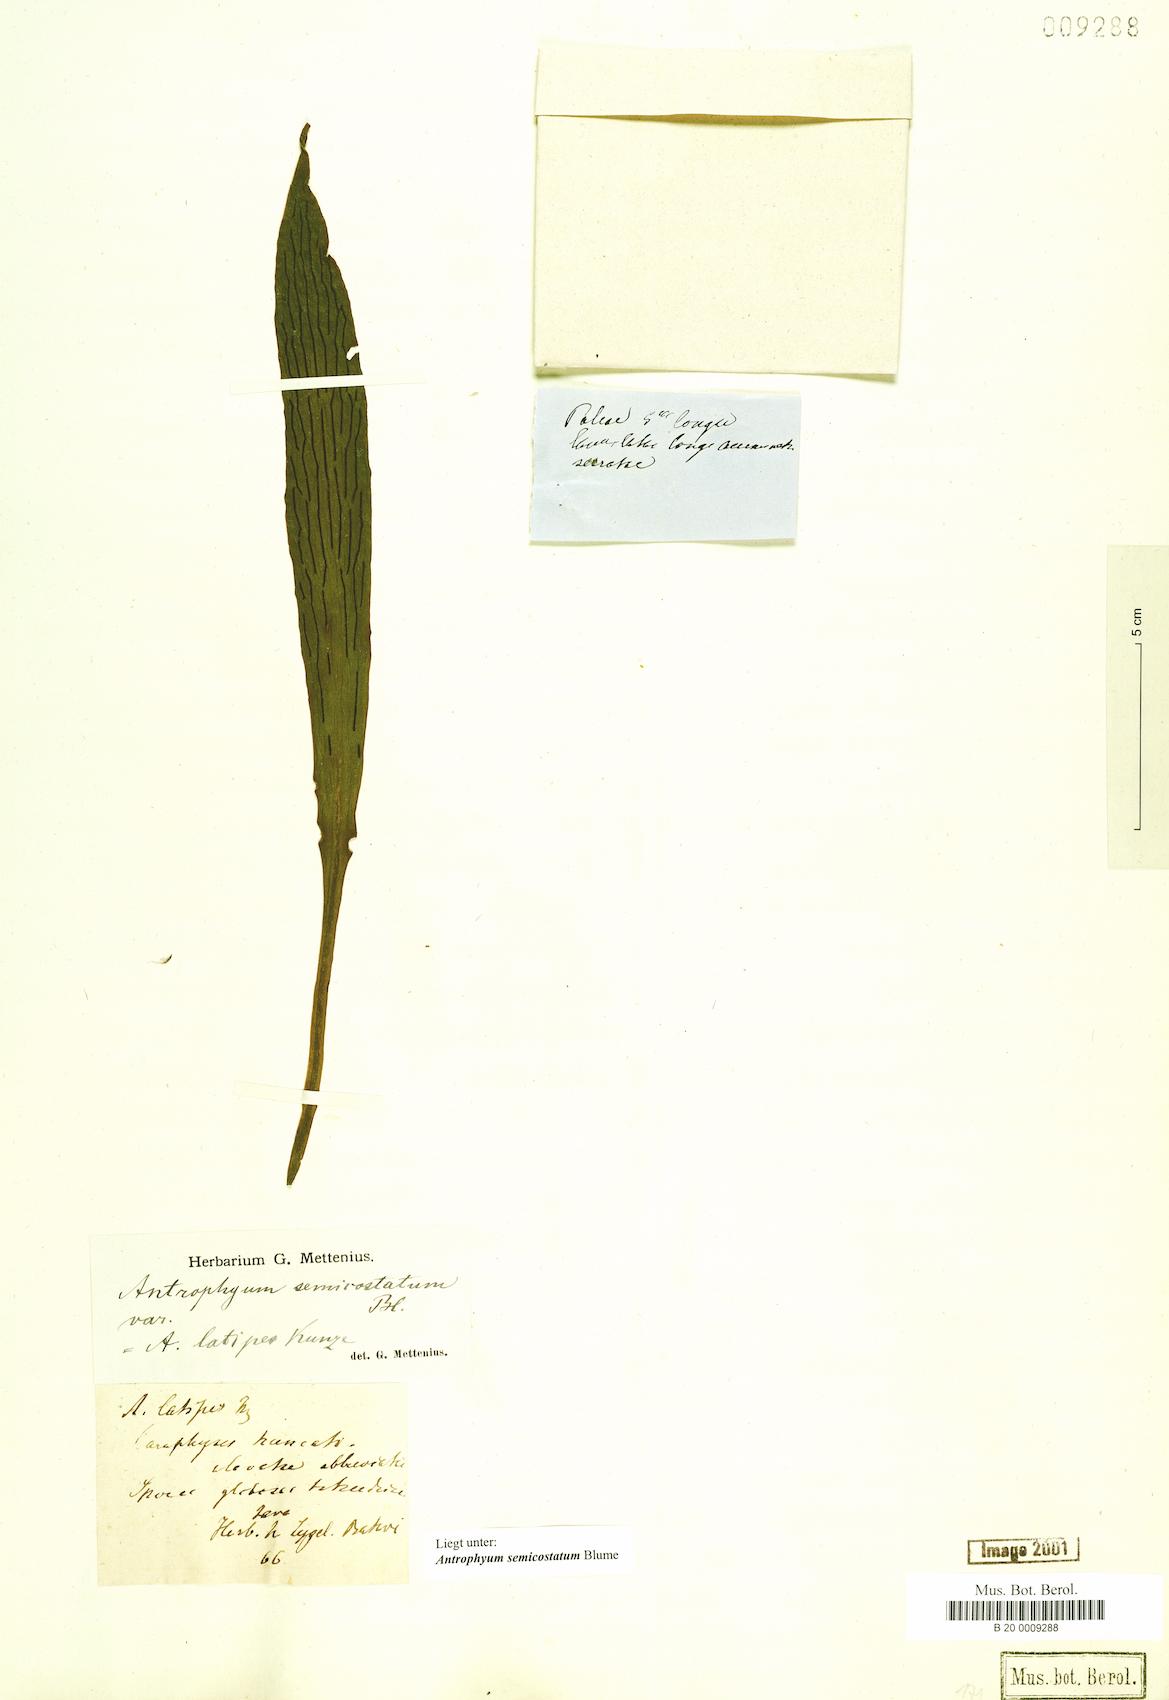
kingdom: Plantae
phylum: Tracheophyta
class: Polypodiopsida
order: Polypodiales
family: Pteridaceae
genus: Antrophyum
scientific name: Antrophyum semicostatum
